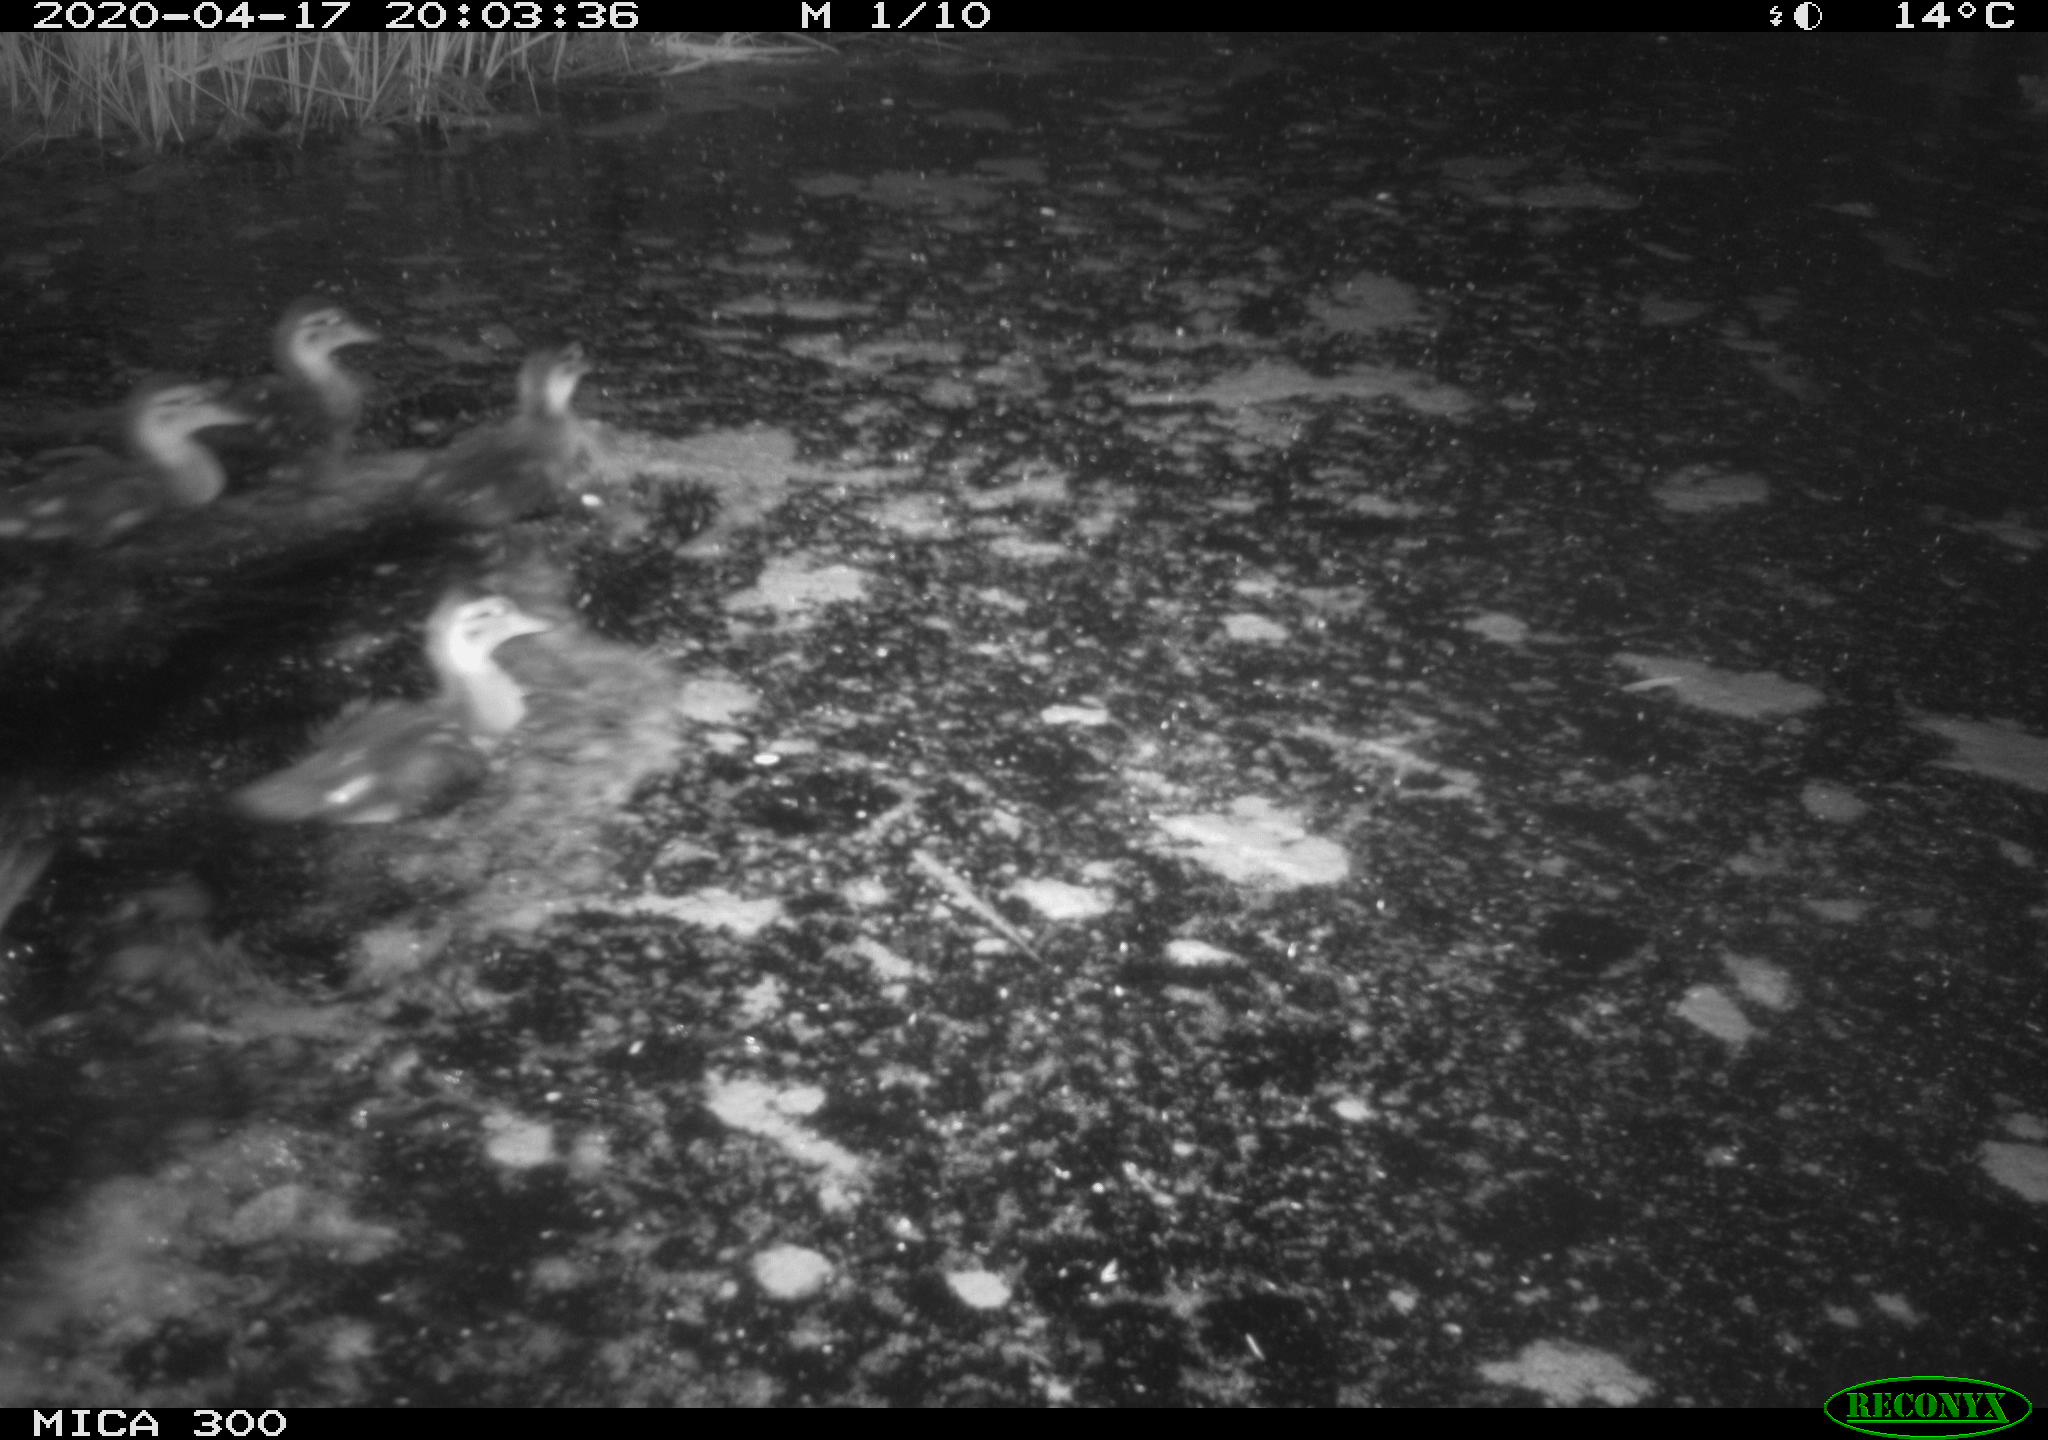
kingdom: Animalia
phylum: Chordata
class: Aves
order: Anseriformes
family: Anatidae
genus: Anas
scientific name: Anas platyrhynchos
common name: Mallard
